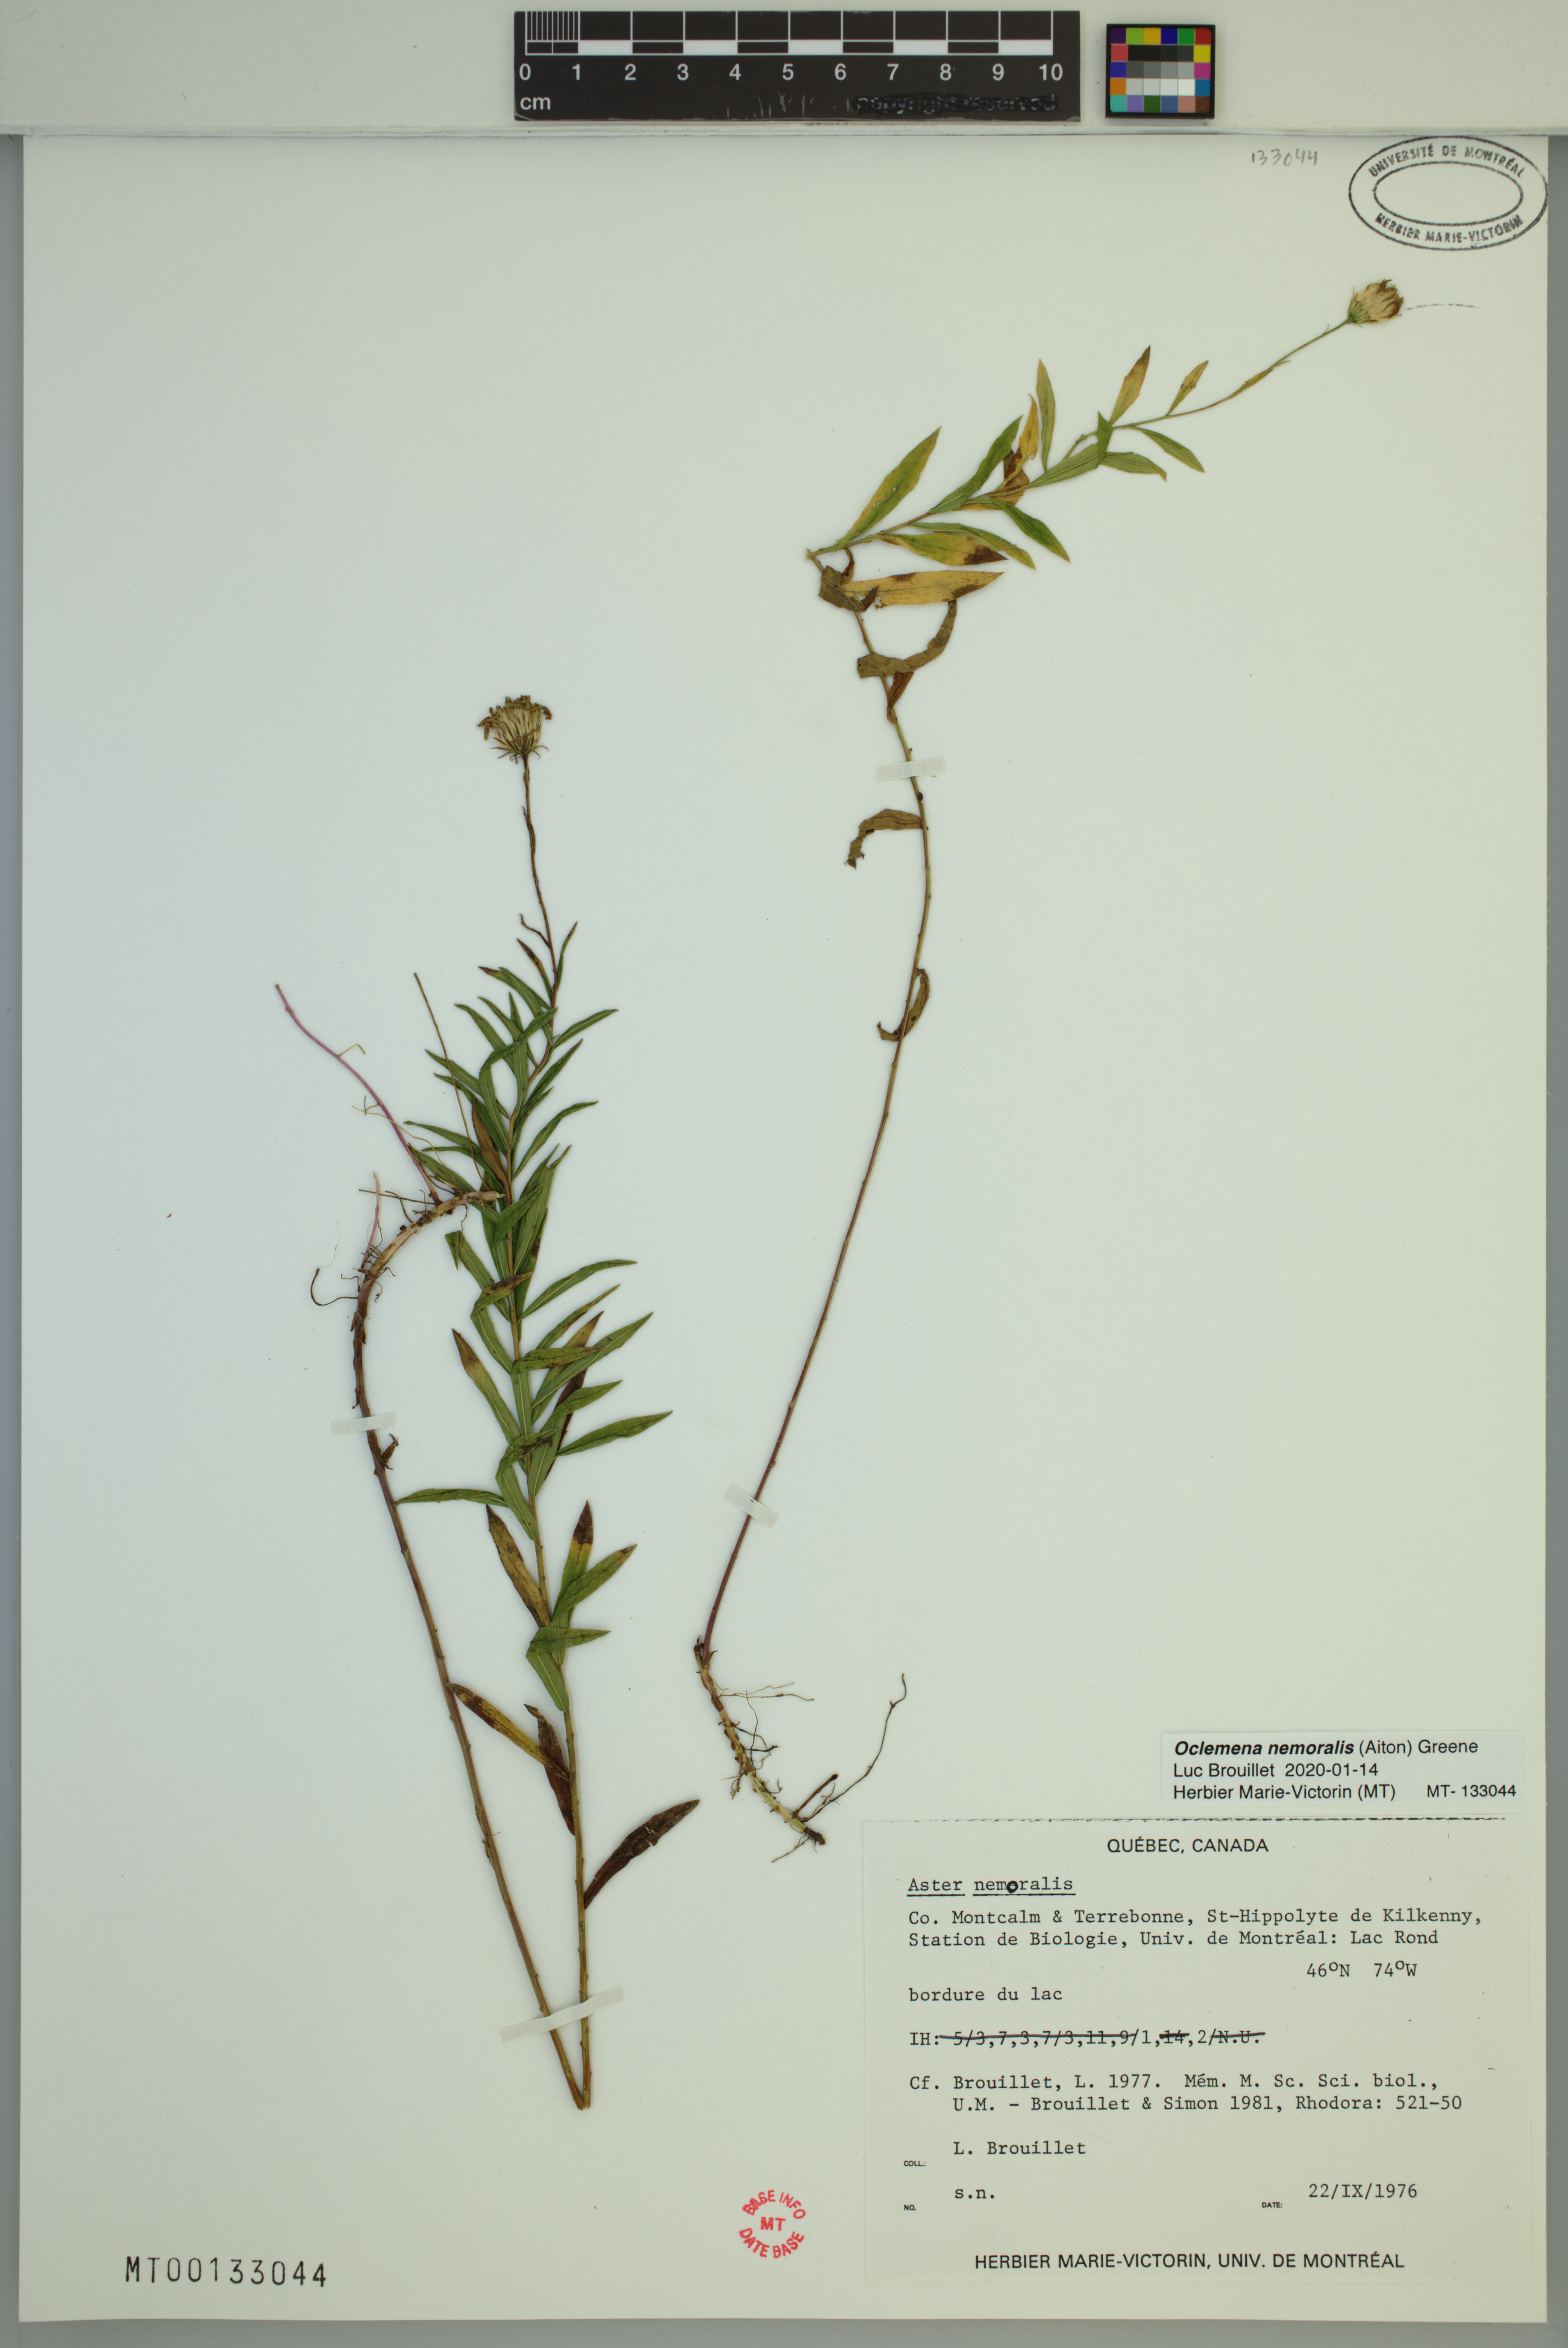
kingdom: Plantae
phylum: Tracheophyta
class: Magnoliopsida
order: Asterales
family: Asteraceae
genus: Oclemena
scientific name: Oclemena nemoralis
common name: Bog aster
